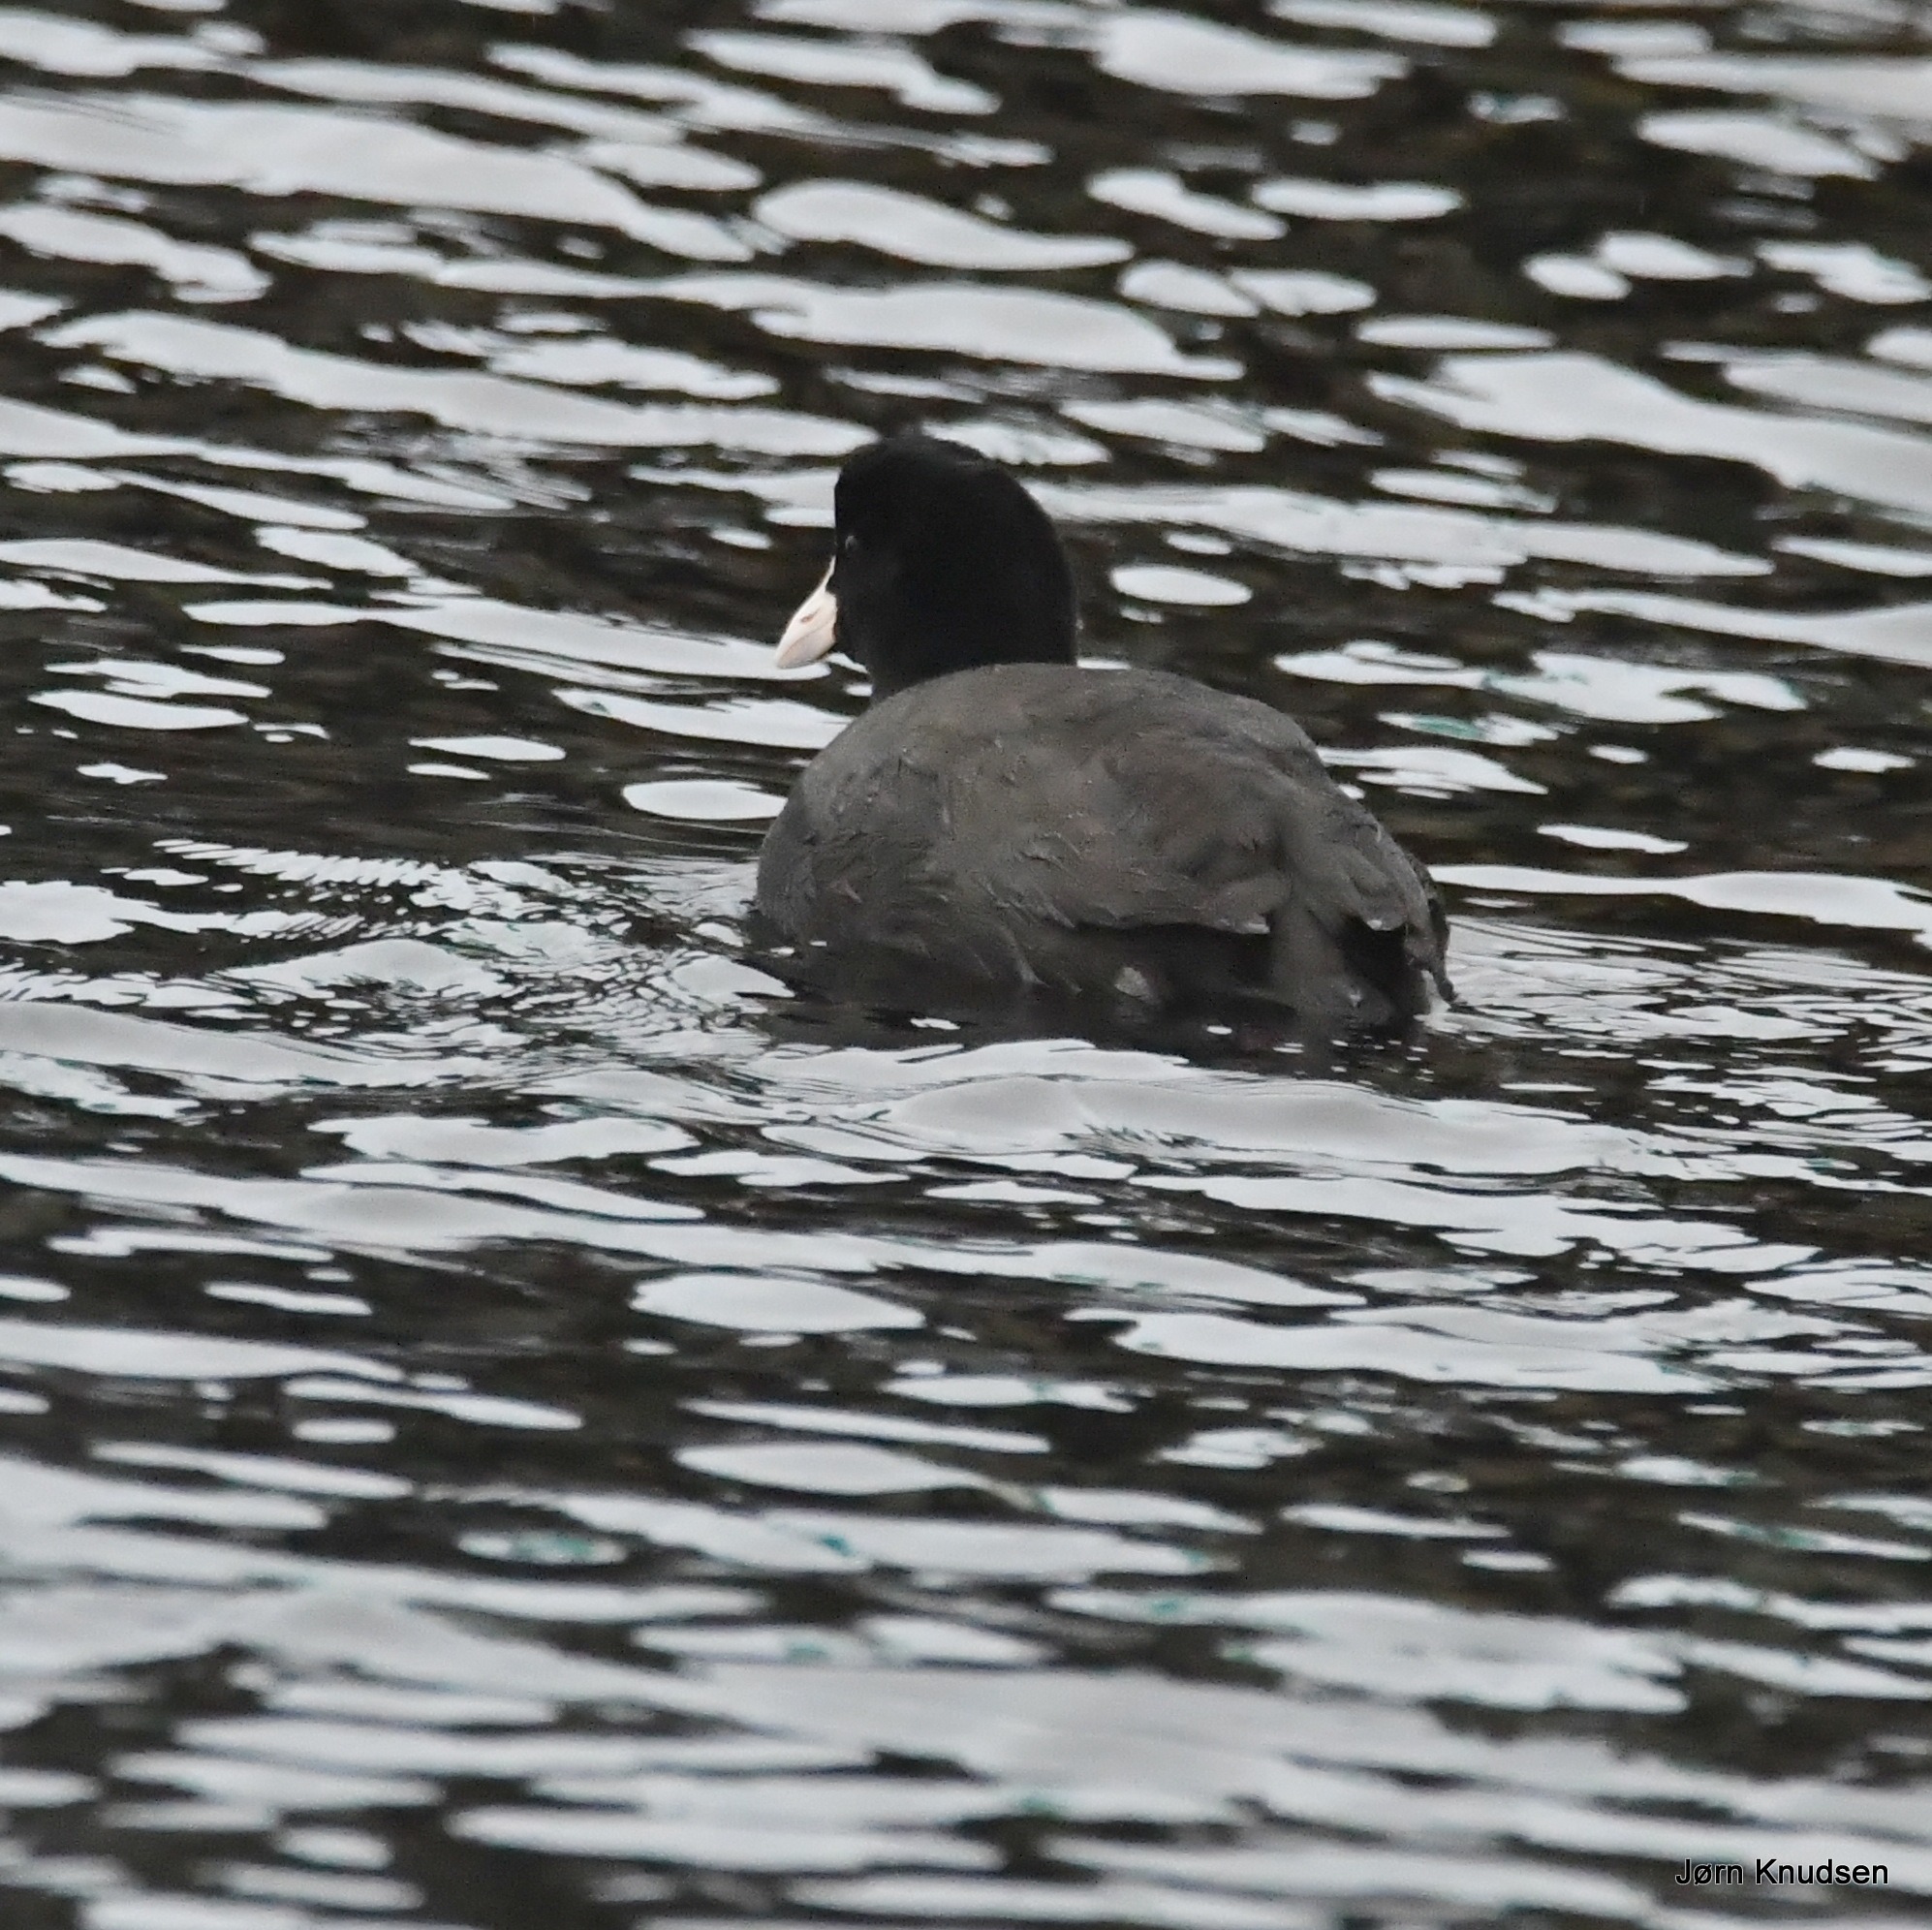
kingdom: Animalia
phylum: Chordata
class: Aves
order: Gruiformes
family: Rallidae
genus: Fulica
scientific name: Fulica atra
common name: Blishøne
